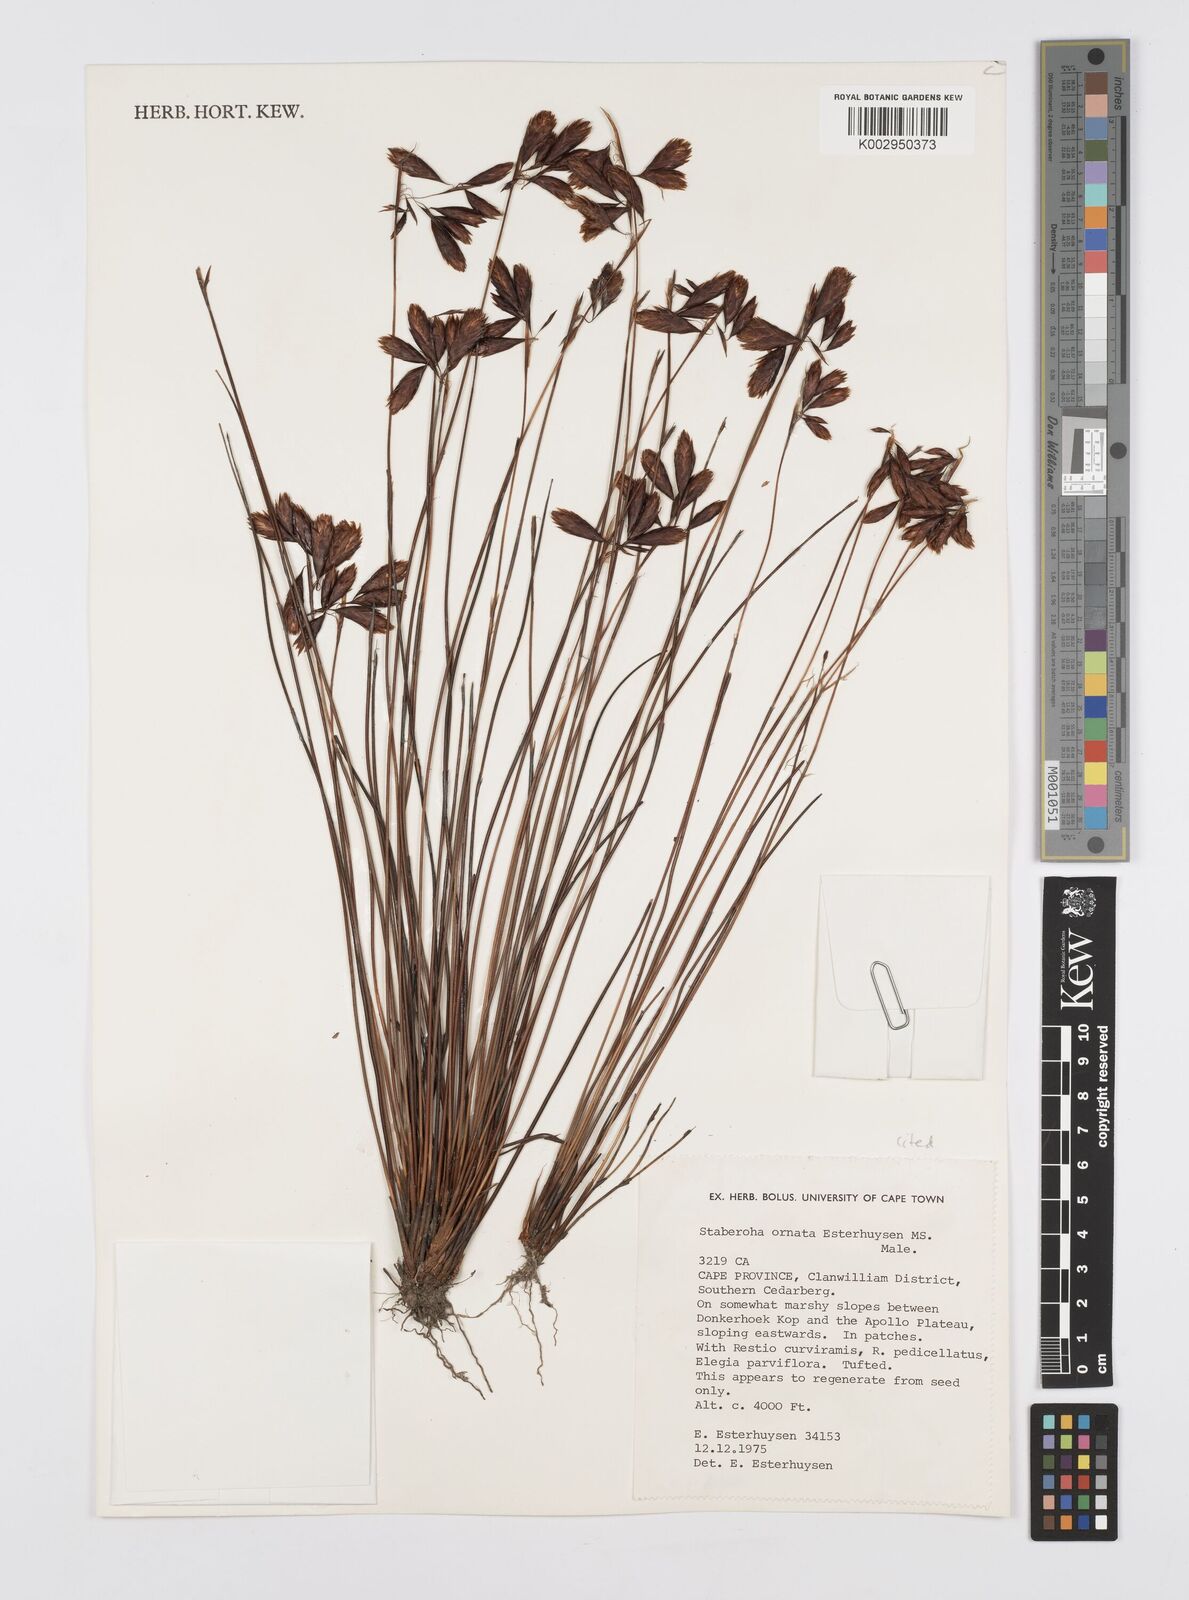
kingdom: Plantae
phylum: Tracheophyta
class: Liliopsida
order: Poales
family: Restionaceae
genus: Staberoha
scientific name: Staberoha ornata
